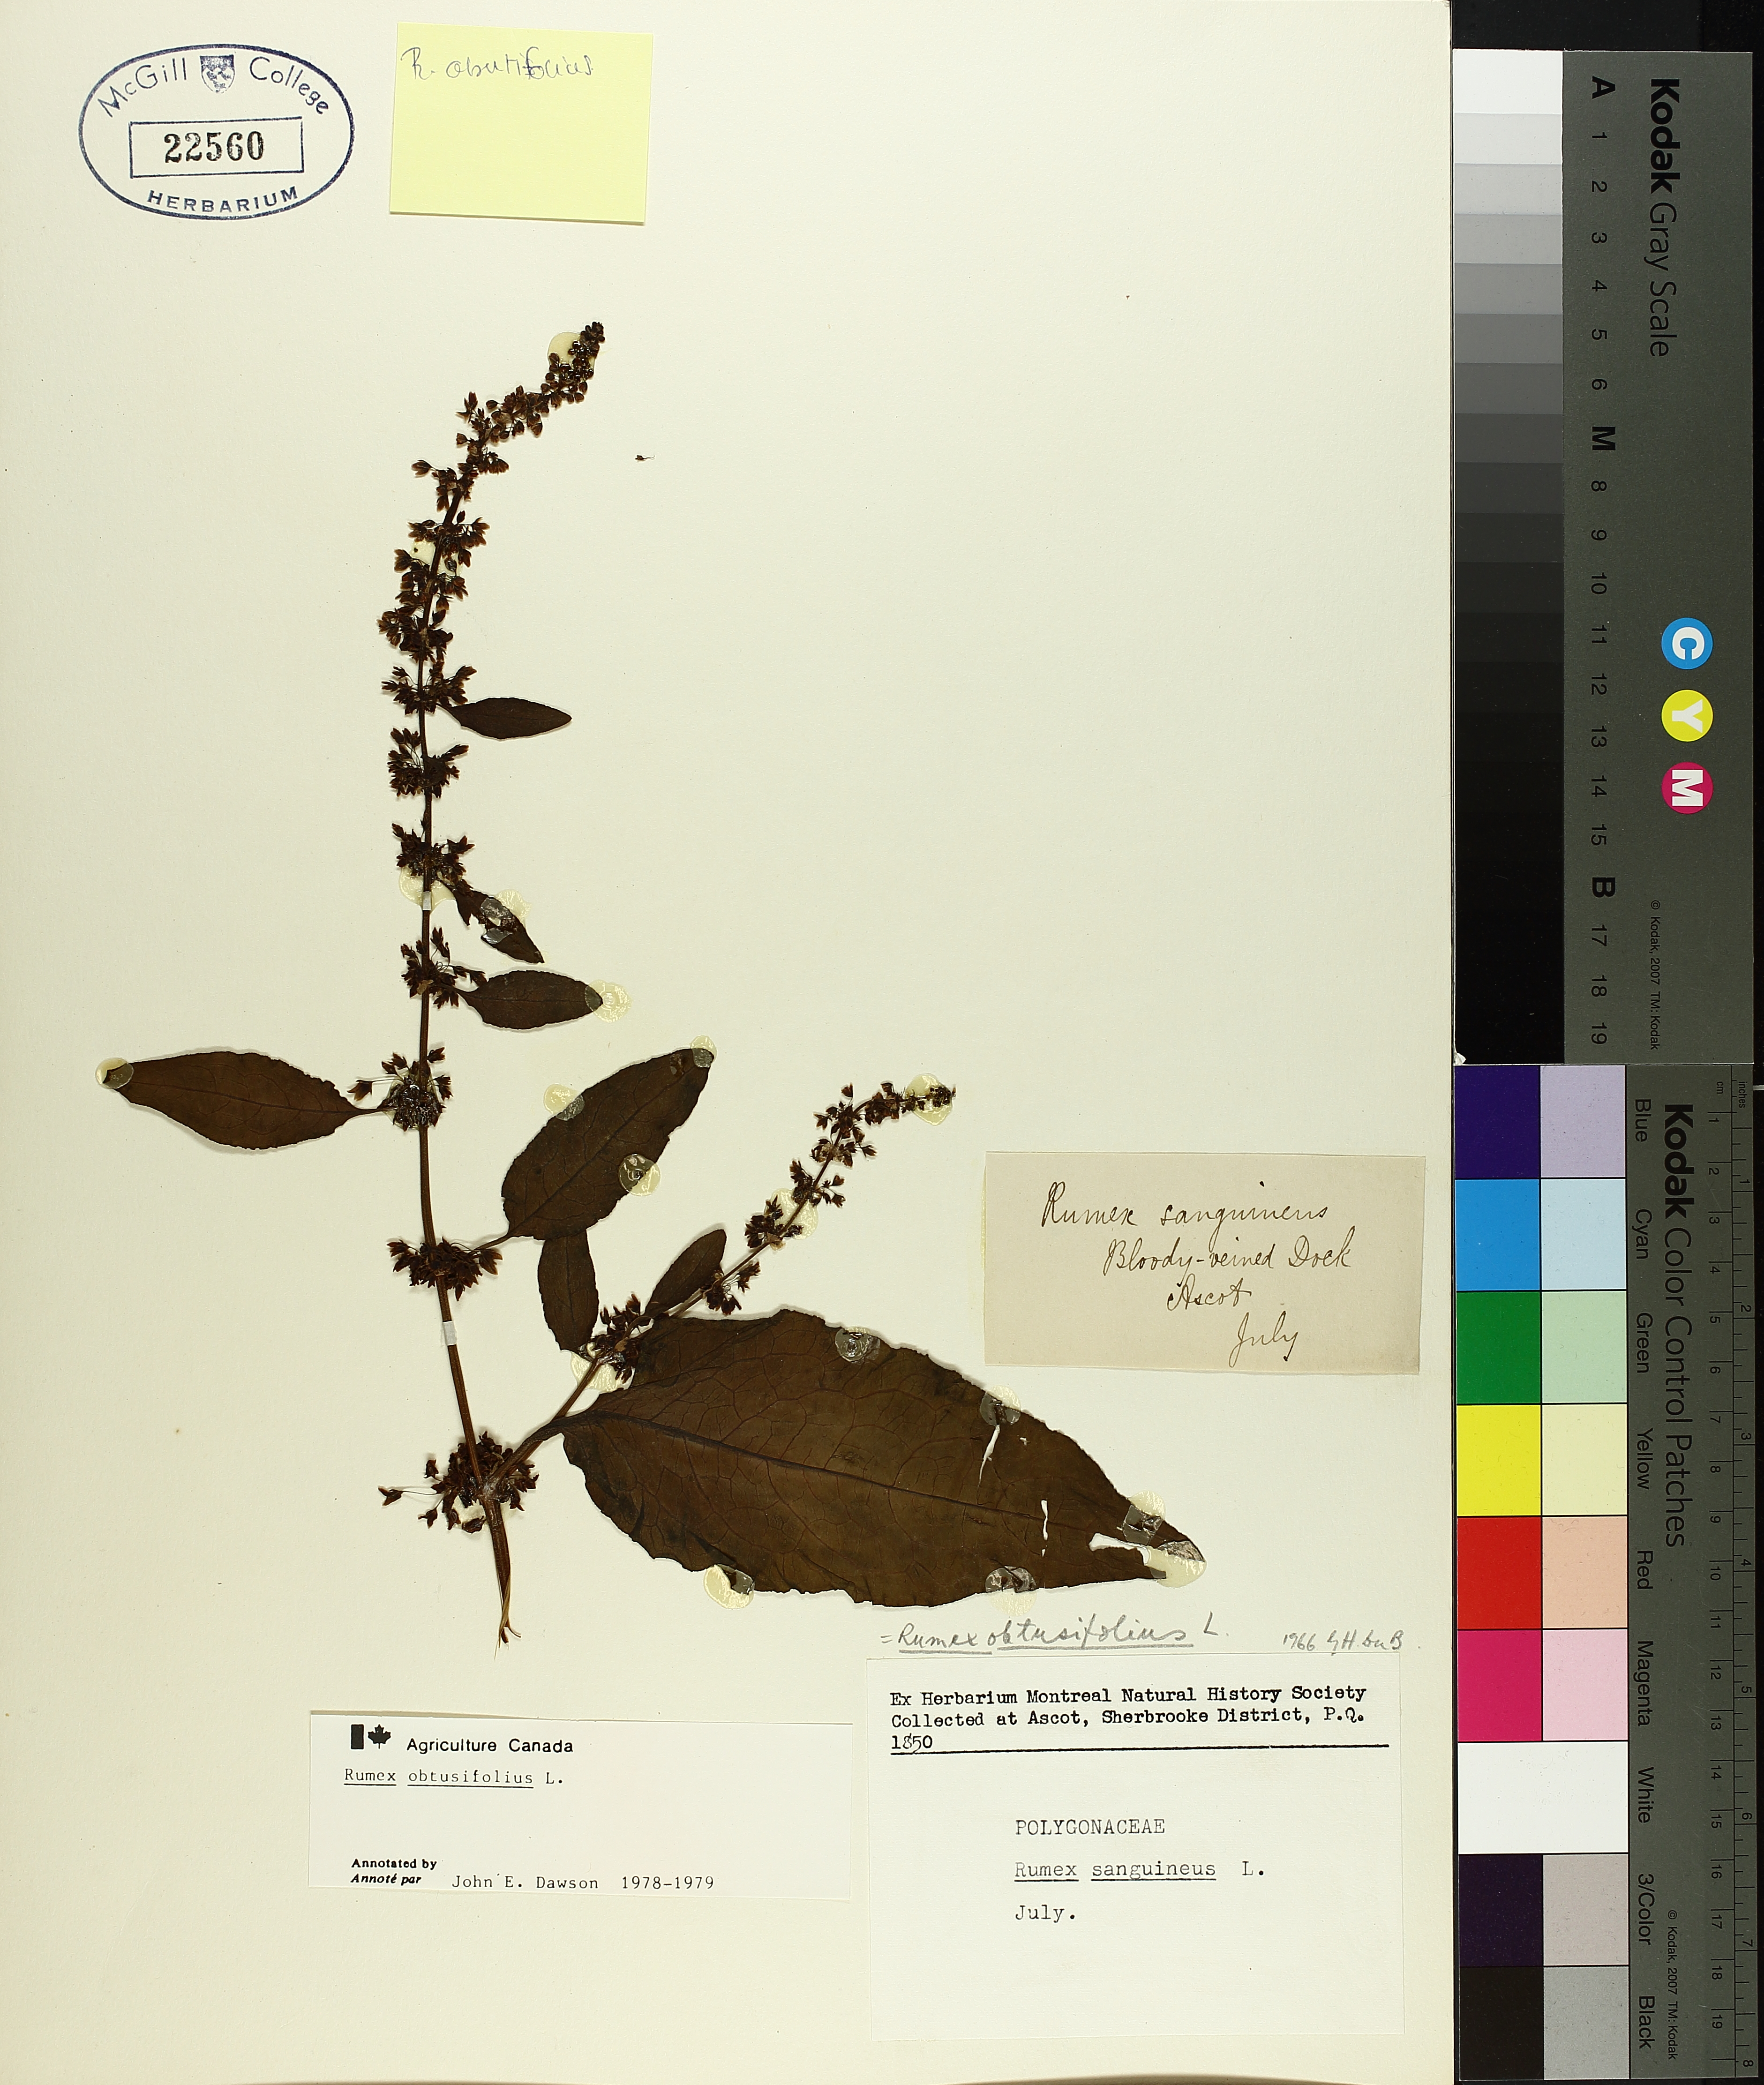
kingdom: Plantae
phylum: Tracheophyta
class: Magnoliopsida
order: Caryophyllales
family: Polygonaceae
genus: Rumex
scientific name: Rumex obtusifolius
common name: Bitter dock
